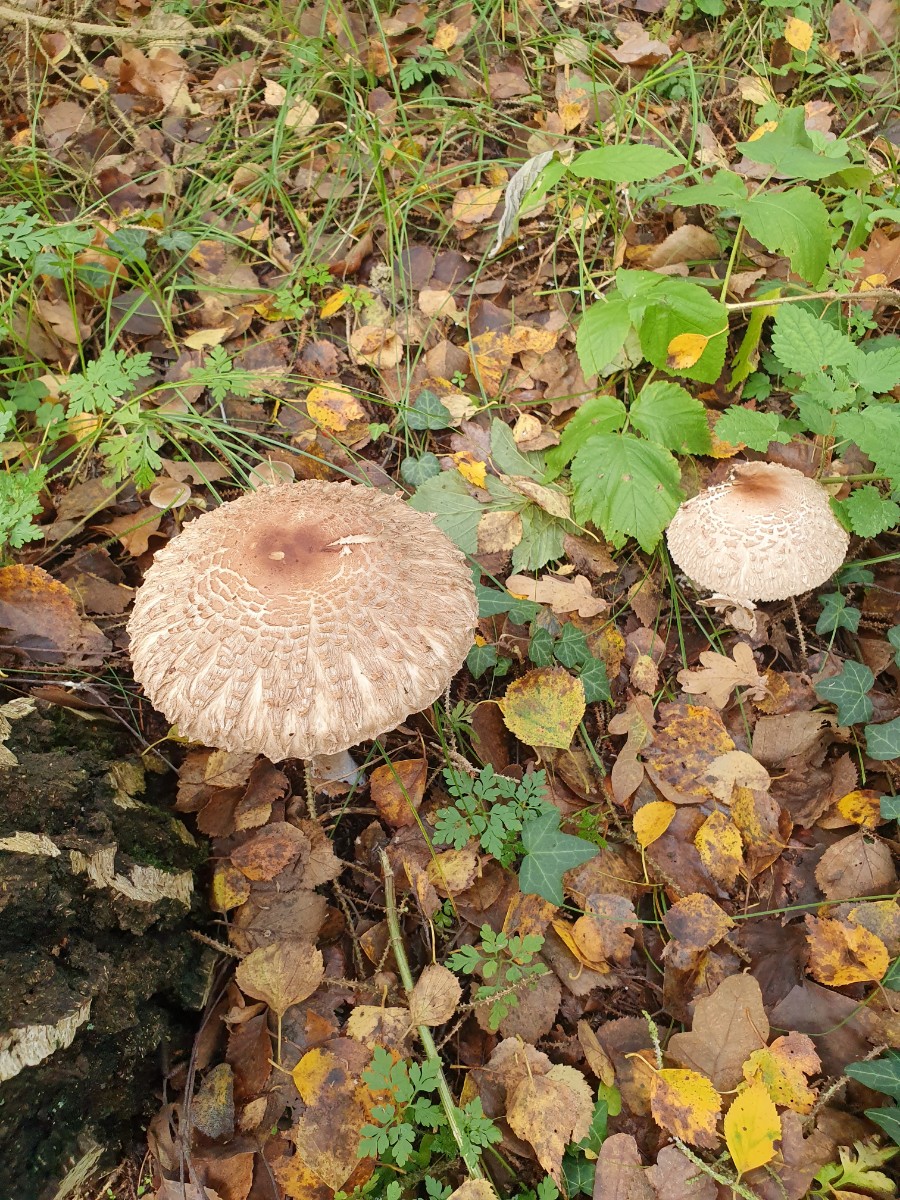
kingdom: Fungi
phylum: Basidiomycota
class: Agaricomycetes
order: Agaricales
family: Agaricaceae
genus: Chlorophyllum
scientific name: Chlorophyllum olivieri
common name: almindelig rabarberhat
